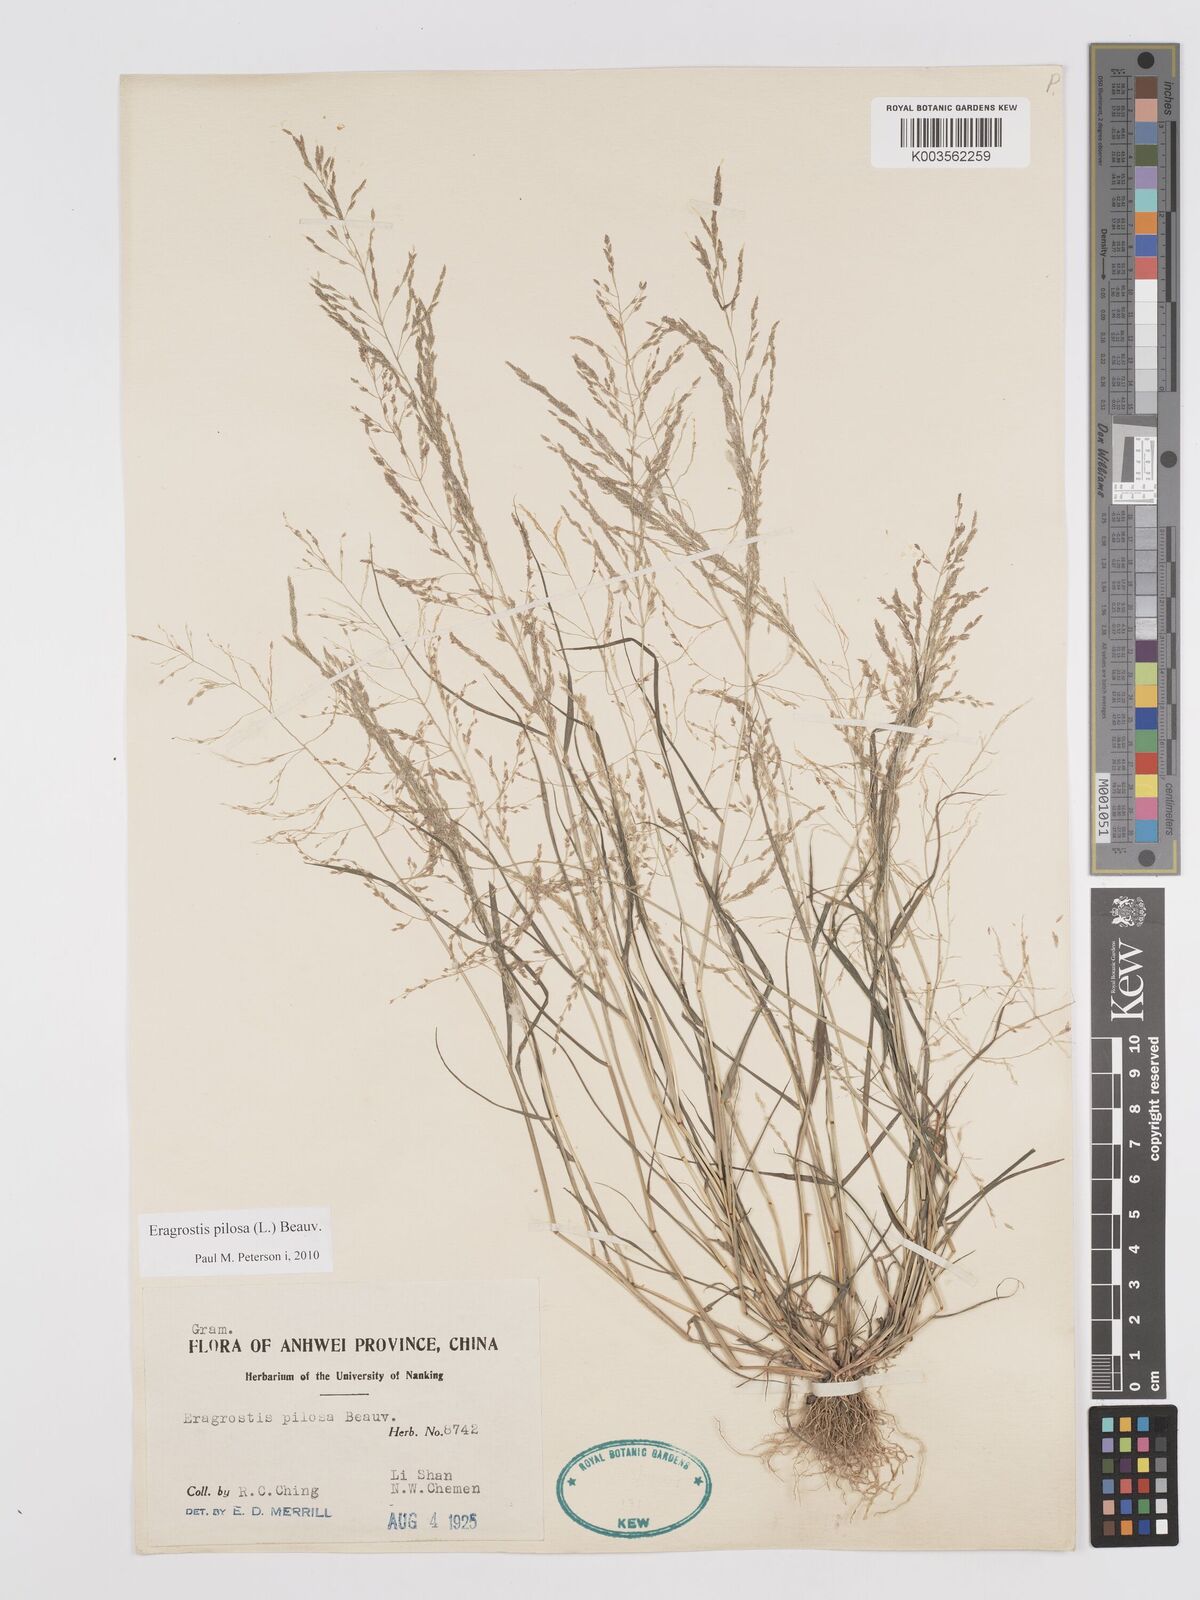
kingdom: Plantae
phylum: Tracheophyta
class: Liliopsida
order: Poales
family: Poaceae
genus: Eragrostis
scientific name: Eragrostis pilosa
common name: Indian lovegrass
